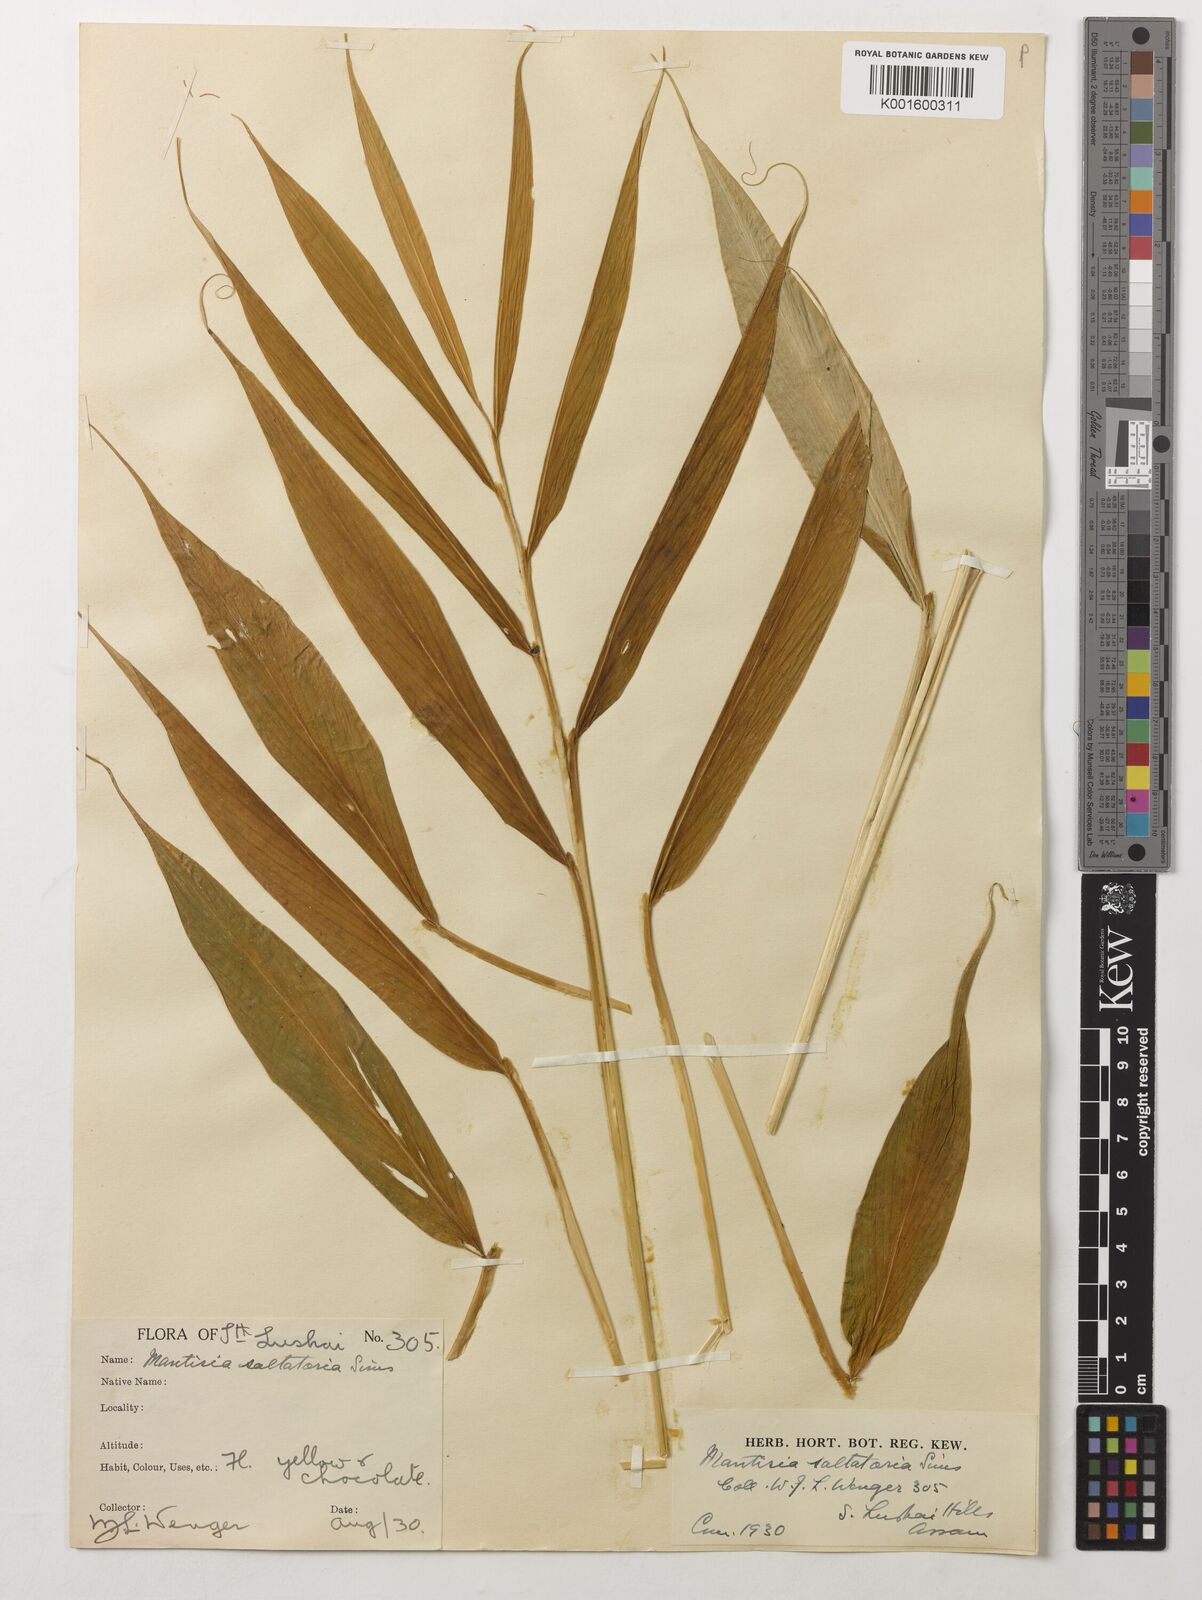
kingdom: Plantae
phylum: Tracheophyta
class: Liliopsida
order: Zingiberales
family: Zingiberaceae
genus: Globba
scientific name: Globba radicalis
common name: Dancing girl
